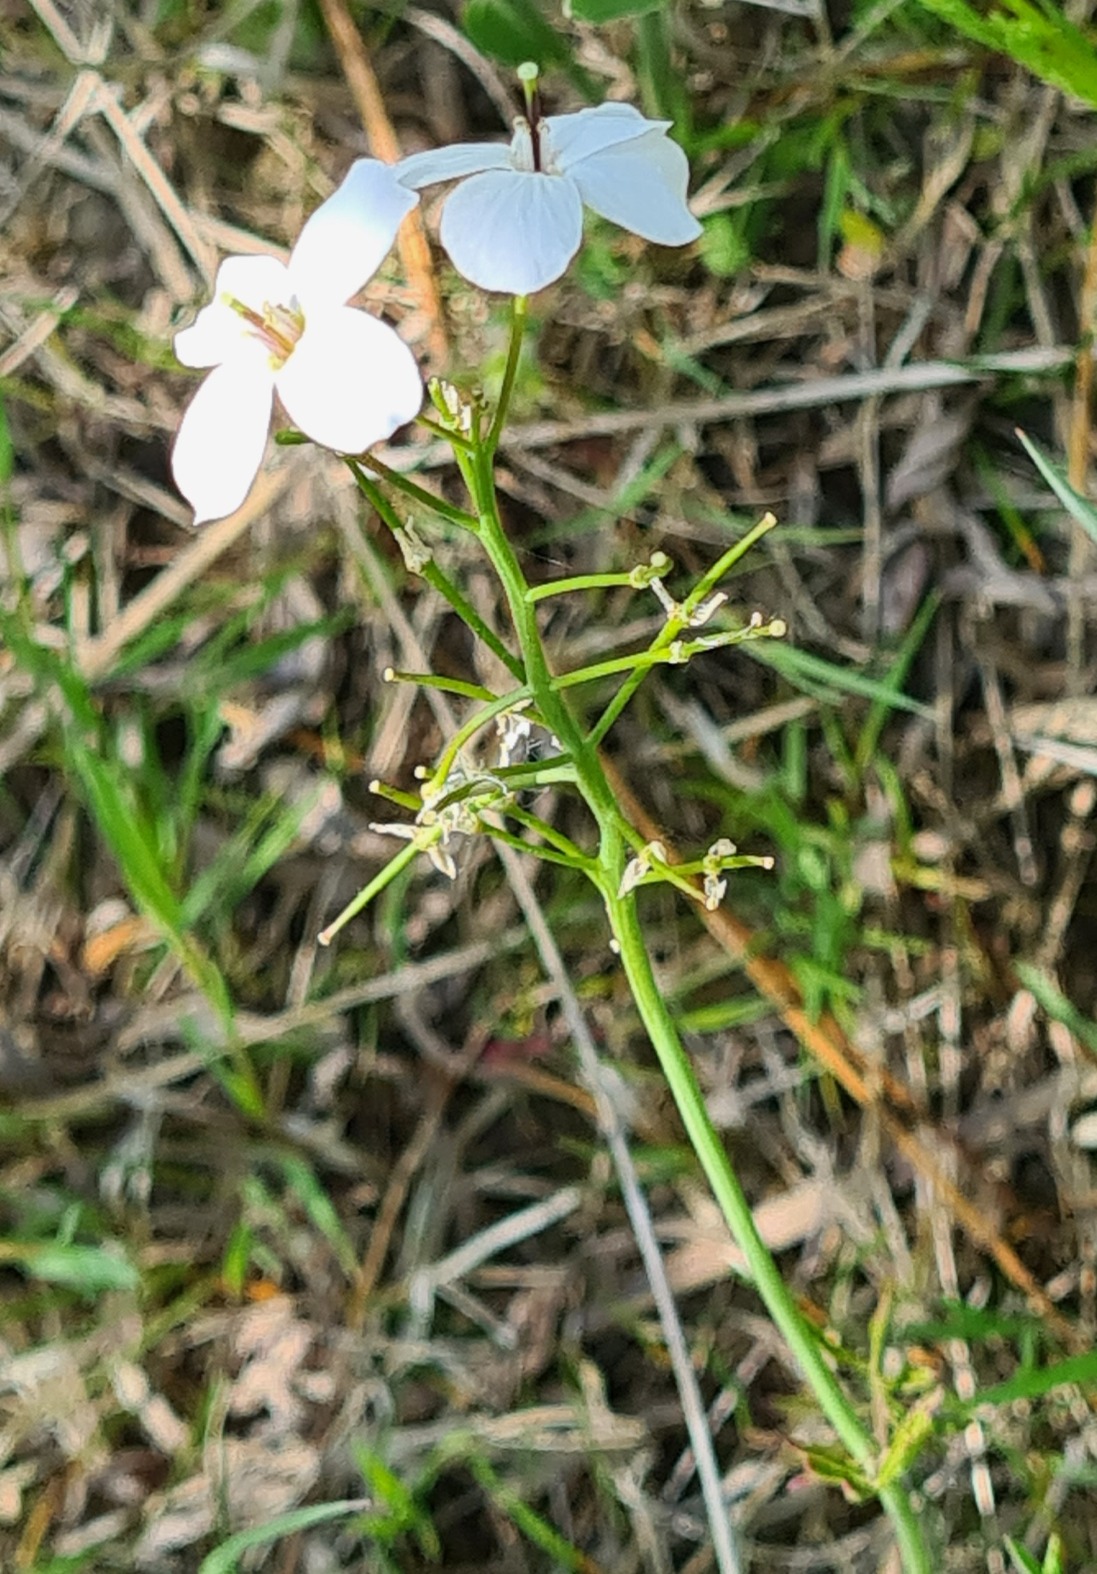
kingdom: Plantae
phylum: Tracheophyta
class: Magnoliopsida
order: Brassicales
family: Brassicaceae
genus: Cardamine
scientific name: Cardamine pratensis
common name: Engkarse
